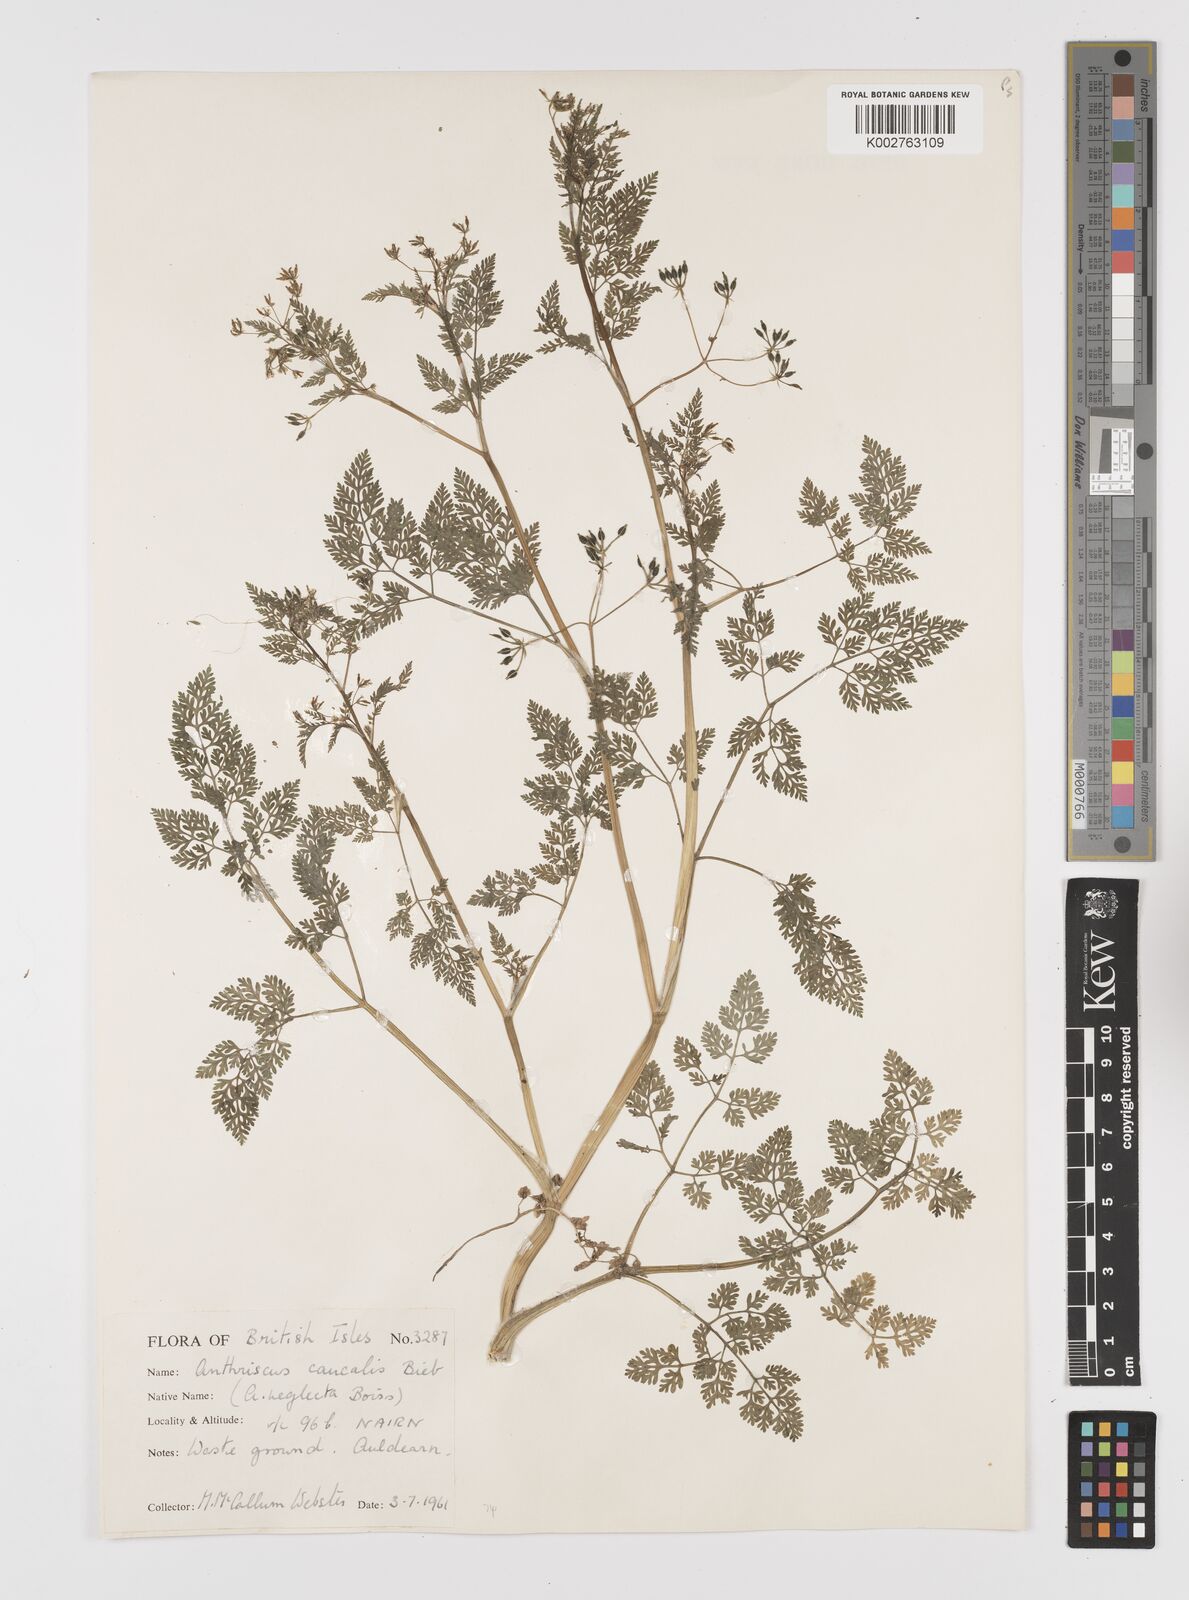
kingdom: Plantae
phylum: Tracheophyta
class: Magnoliopsida
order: Apiales
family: Apiaceae
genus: Anthriscus
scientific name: Anthriscus caucalis
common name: Bur chervil
